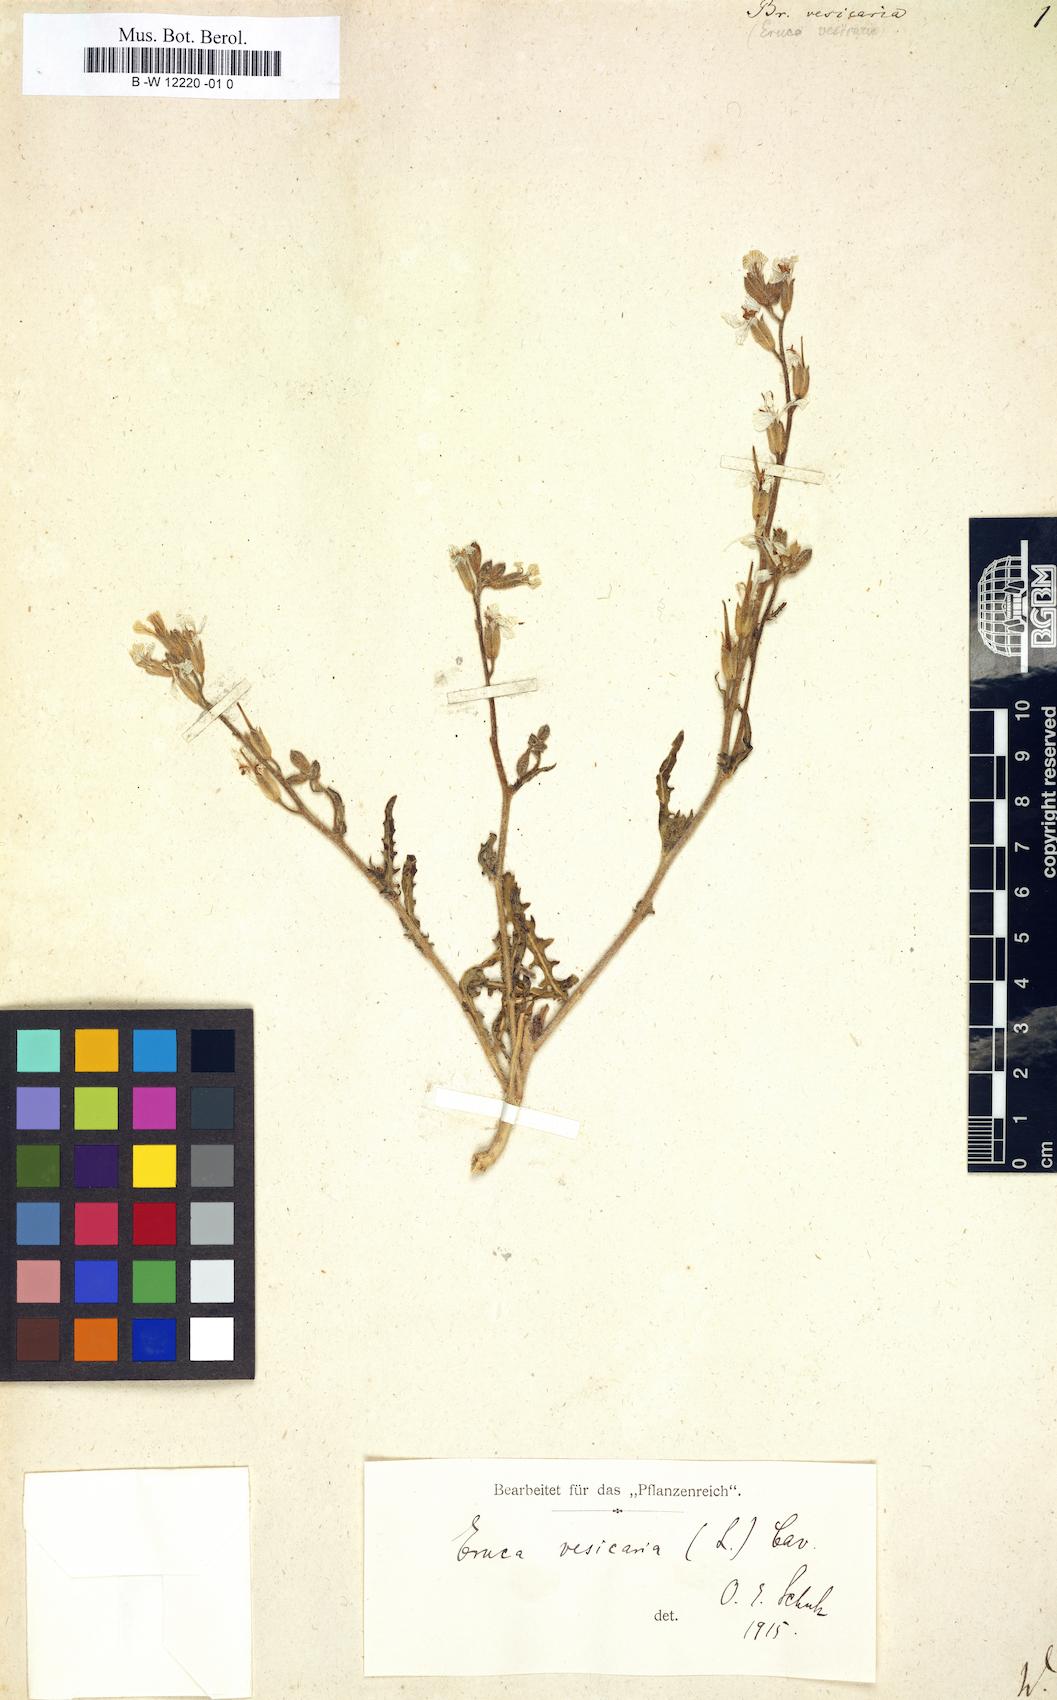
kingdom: Plantae
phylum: Tracheophyta
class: Magnoliopsida
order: Brassicales
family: Brassicaceae
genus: Eruca
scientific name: Eruca vesicaria
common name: Garden rocket
